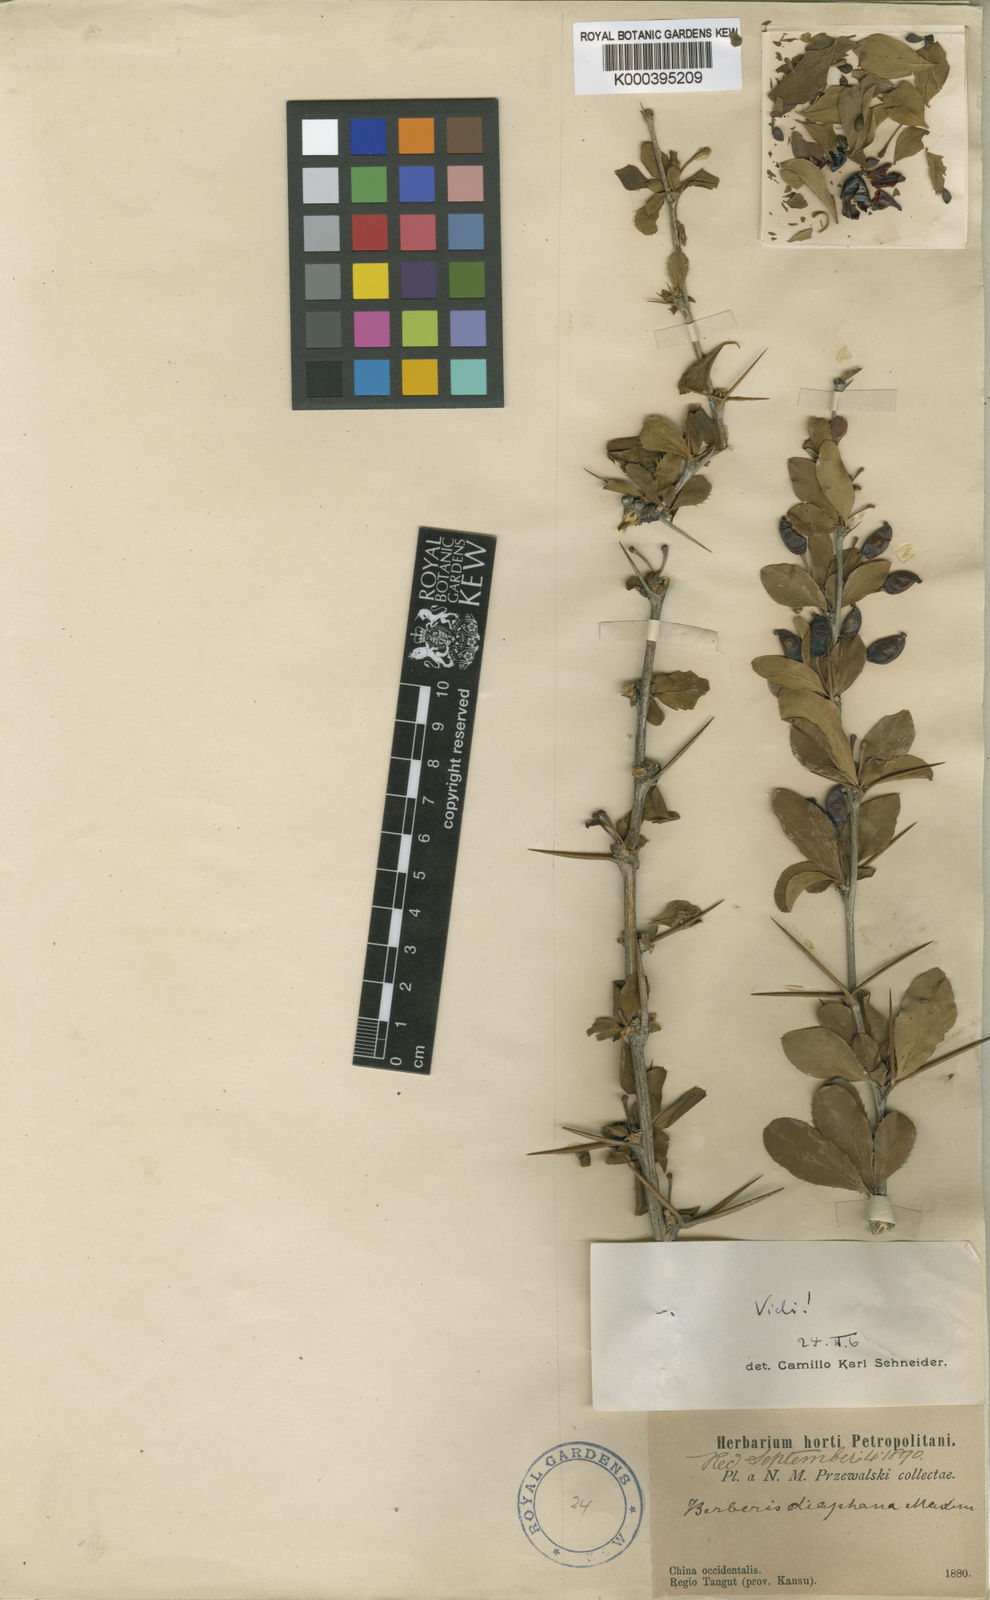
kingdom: Plantae
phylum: Tracheophyta
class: Magnoliopsida
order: Ranunculales
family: Berberidaceae
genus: Berberis
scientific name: Berberis diaphana
